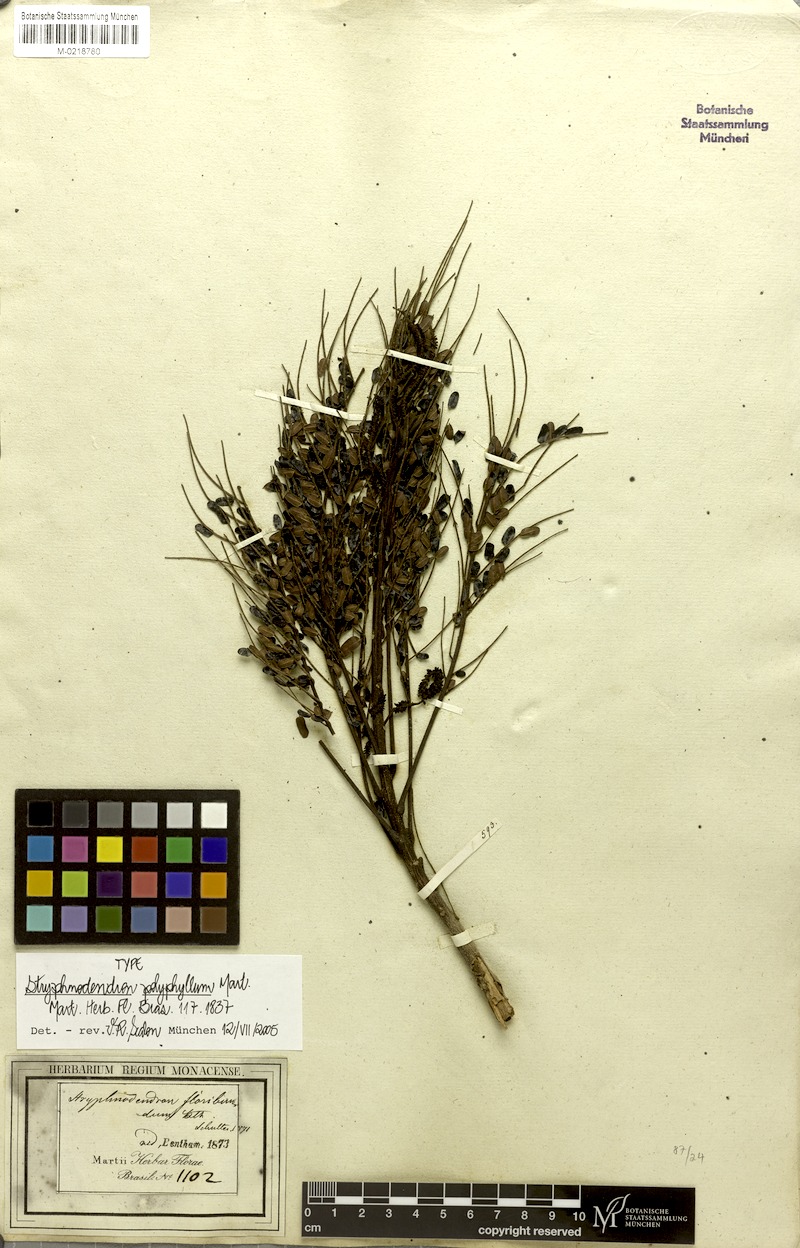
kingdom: Plantae
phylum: Tracheophyta
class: Magnoliopsida
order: Fabales
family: Fabaceae
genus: Stryphnodendron
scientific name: Stryphnodendron polyphyllum
